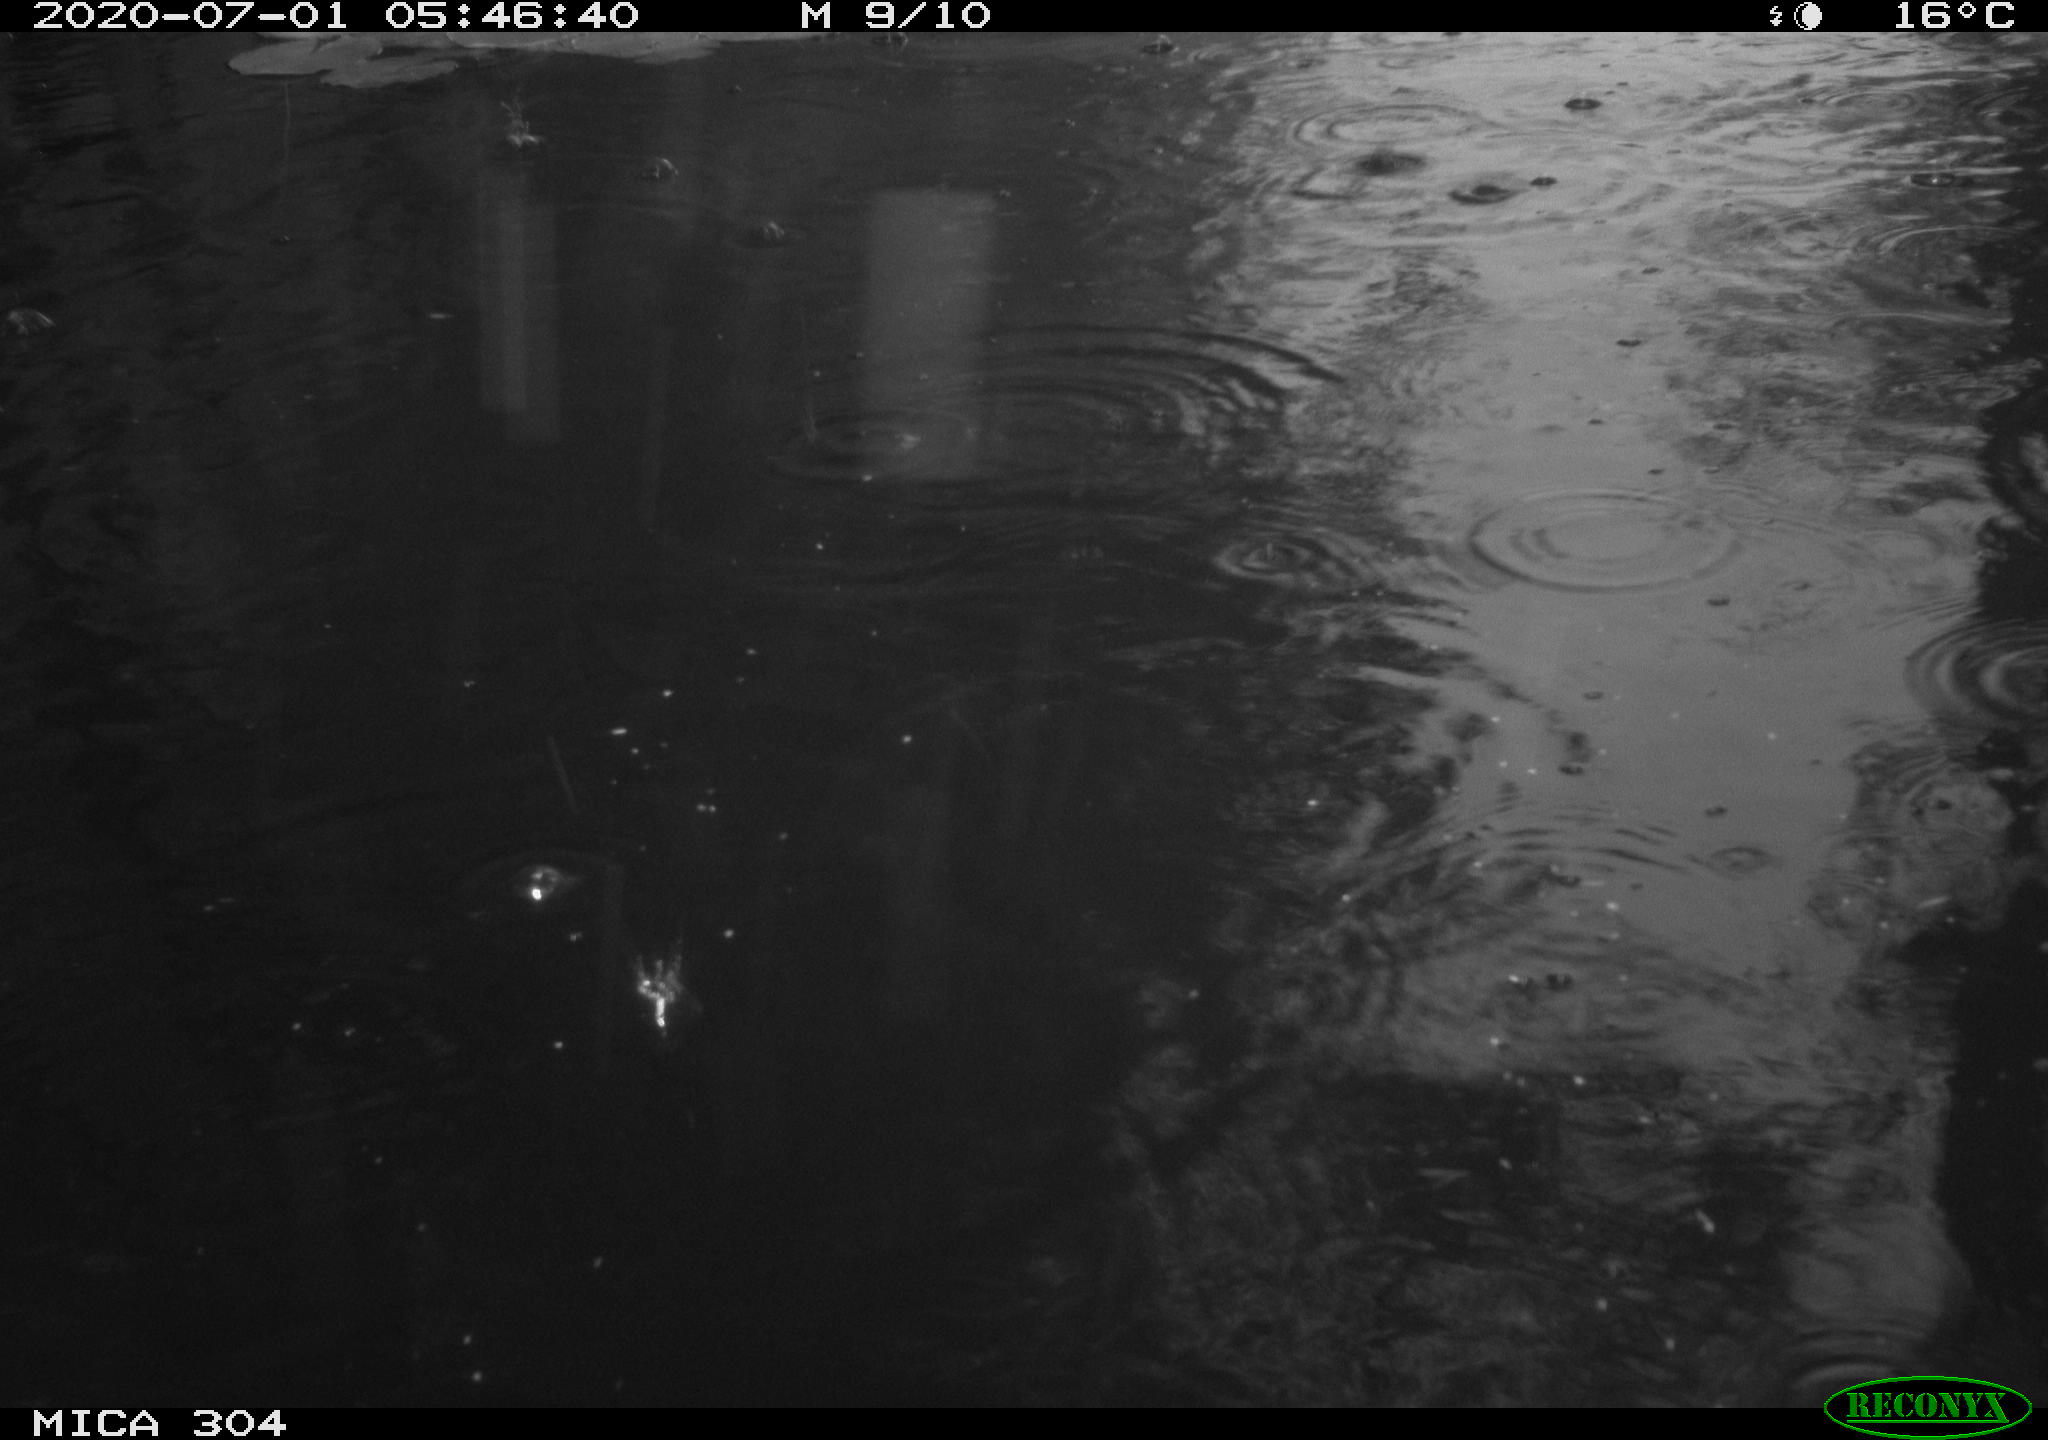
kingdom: Animalia
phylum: Chordata
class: Aves
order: Anseriformes
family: Anatidae
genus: Anas
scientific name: Anas platyrhynchos
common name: Mallard
